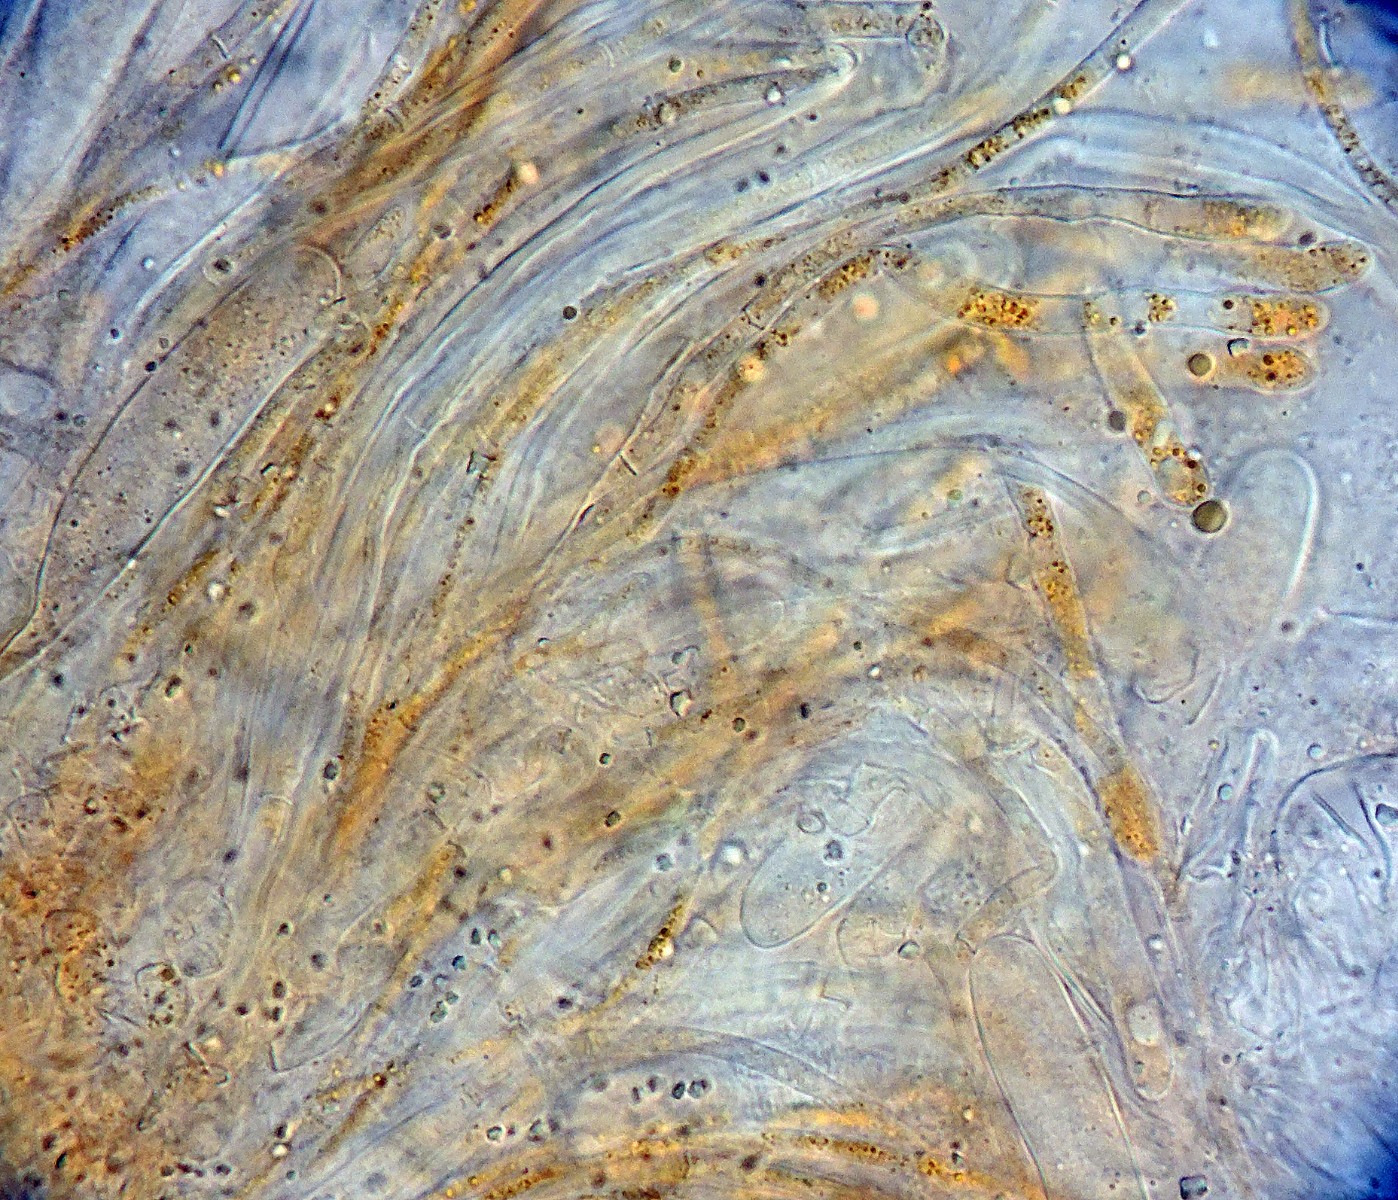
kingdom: Fungi
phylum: Ascomycota
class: Pezizomycetes
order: Pezizales
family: Pyronemataceae
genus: Inermisia
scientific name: Inermisia gyalectoides
